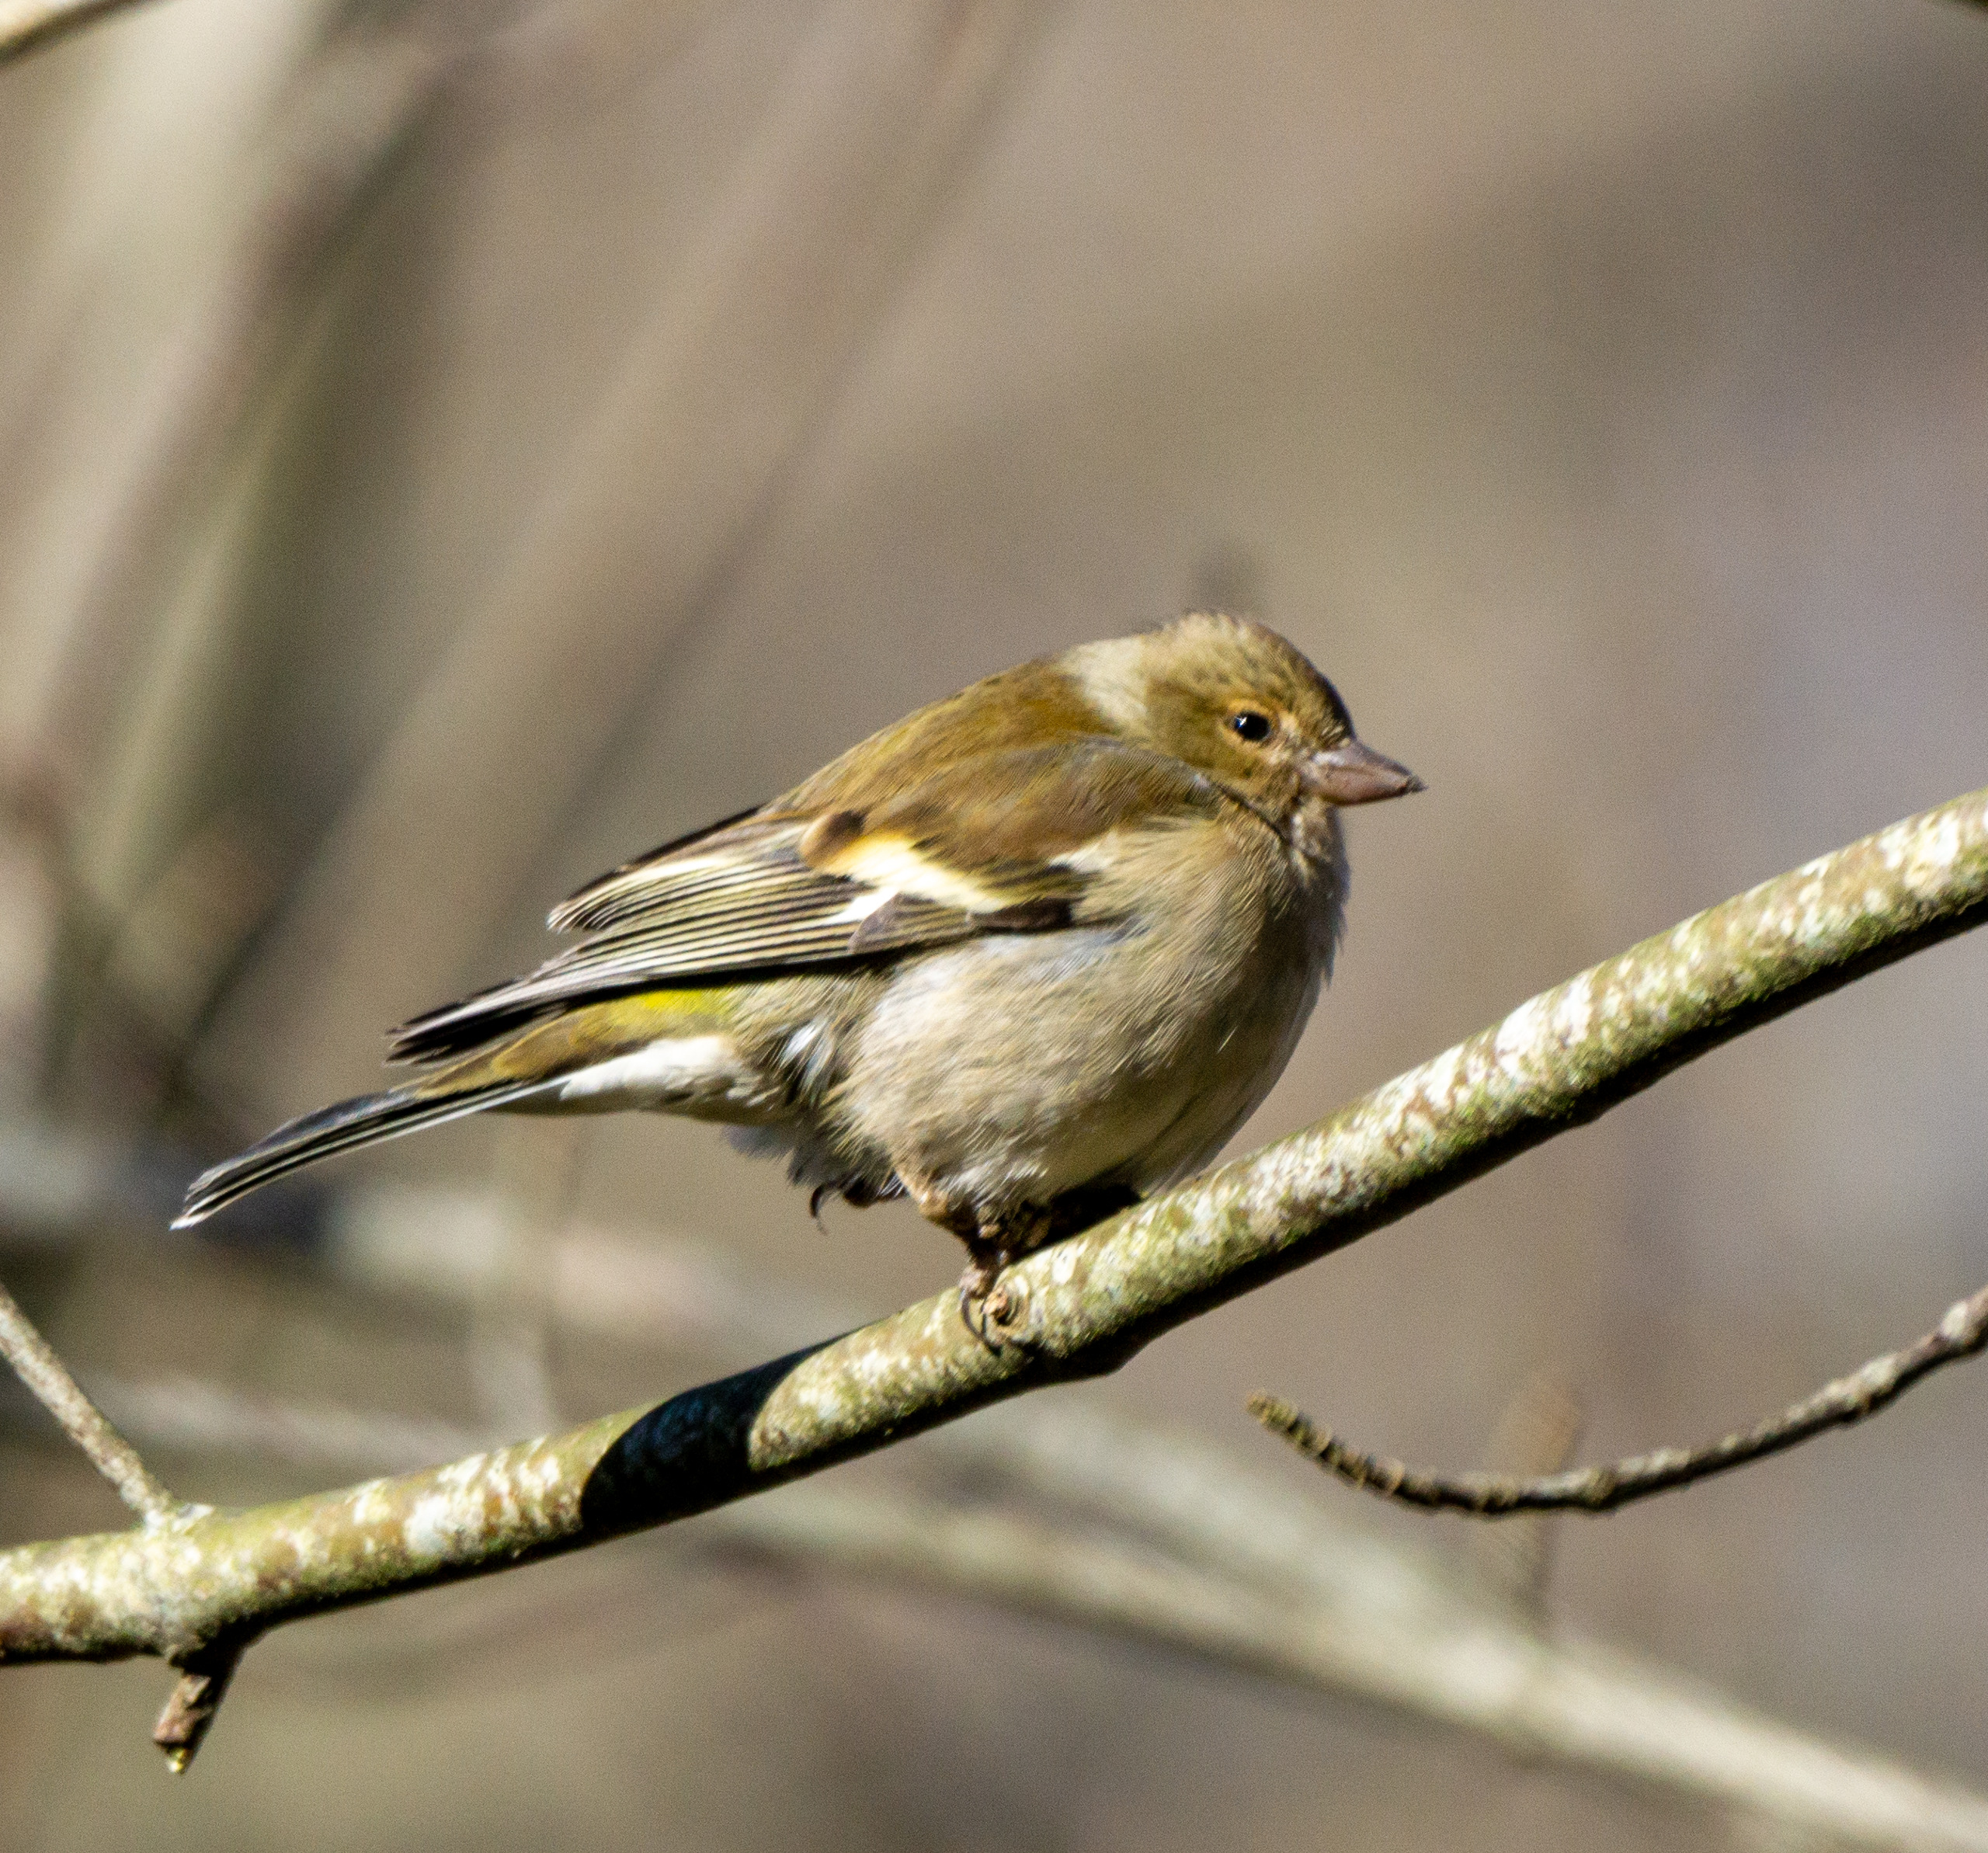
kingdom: Animalia
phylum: Chordata
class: Aves
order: Passeriformes
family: Fringillidae
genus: Fringilla
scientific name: Fringilla coelebs
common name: Bogfinke
